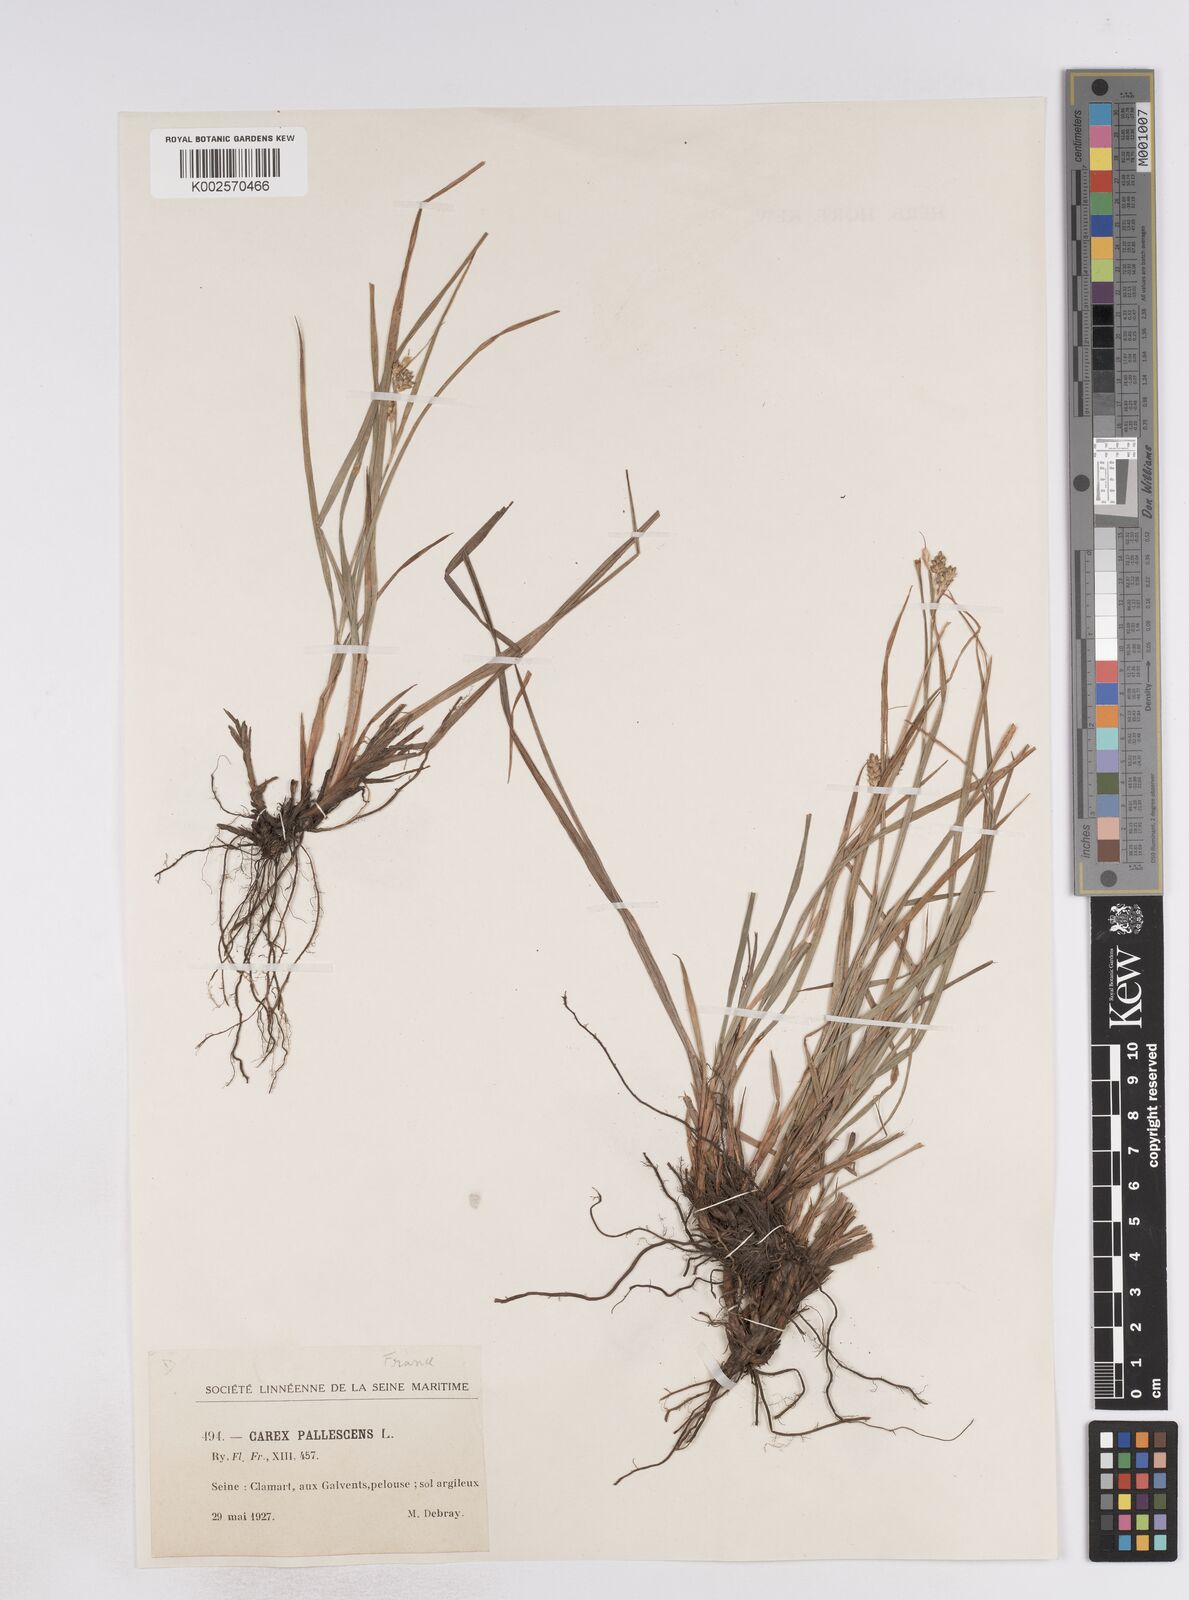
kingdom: Plantae
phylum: Tracheophyta
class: Liliopsida
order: Poales
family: Cyperaceae
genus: Carex
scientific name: Carex pallescens
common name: Pale sedge
